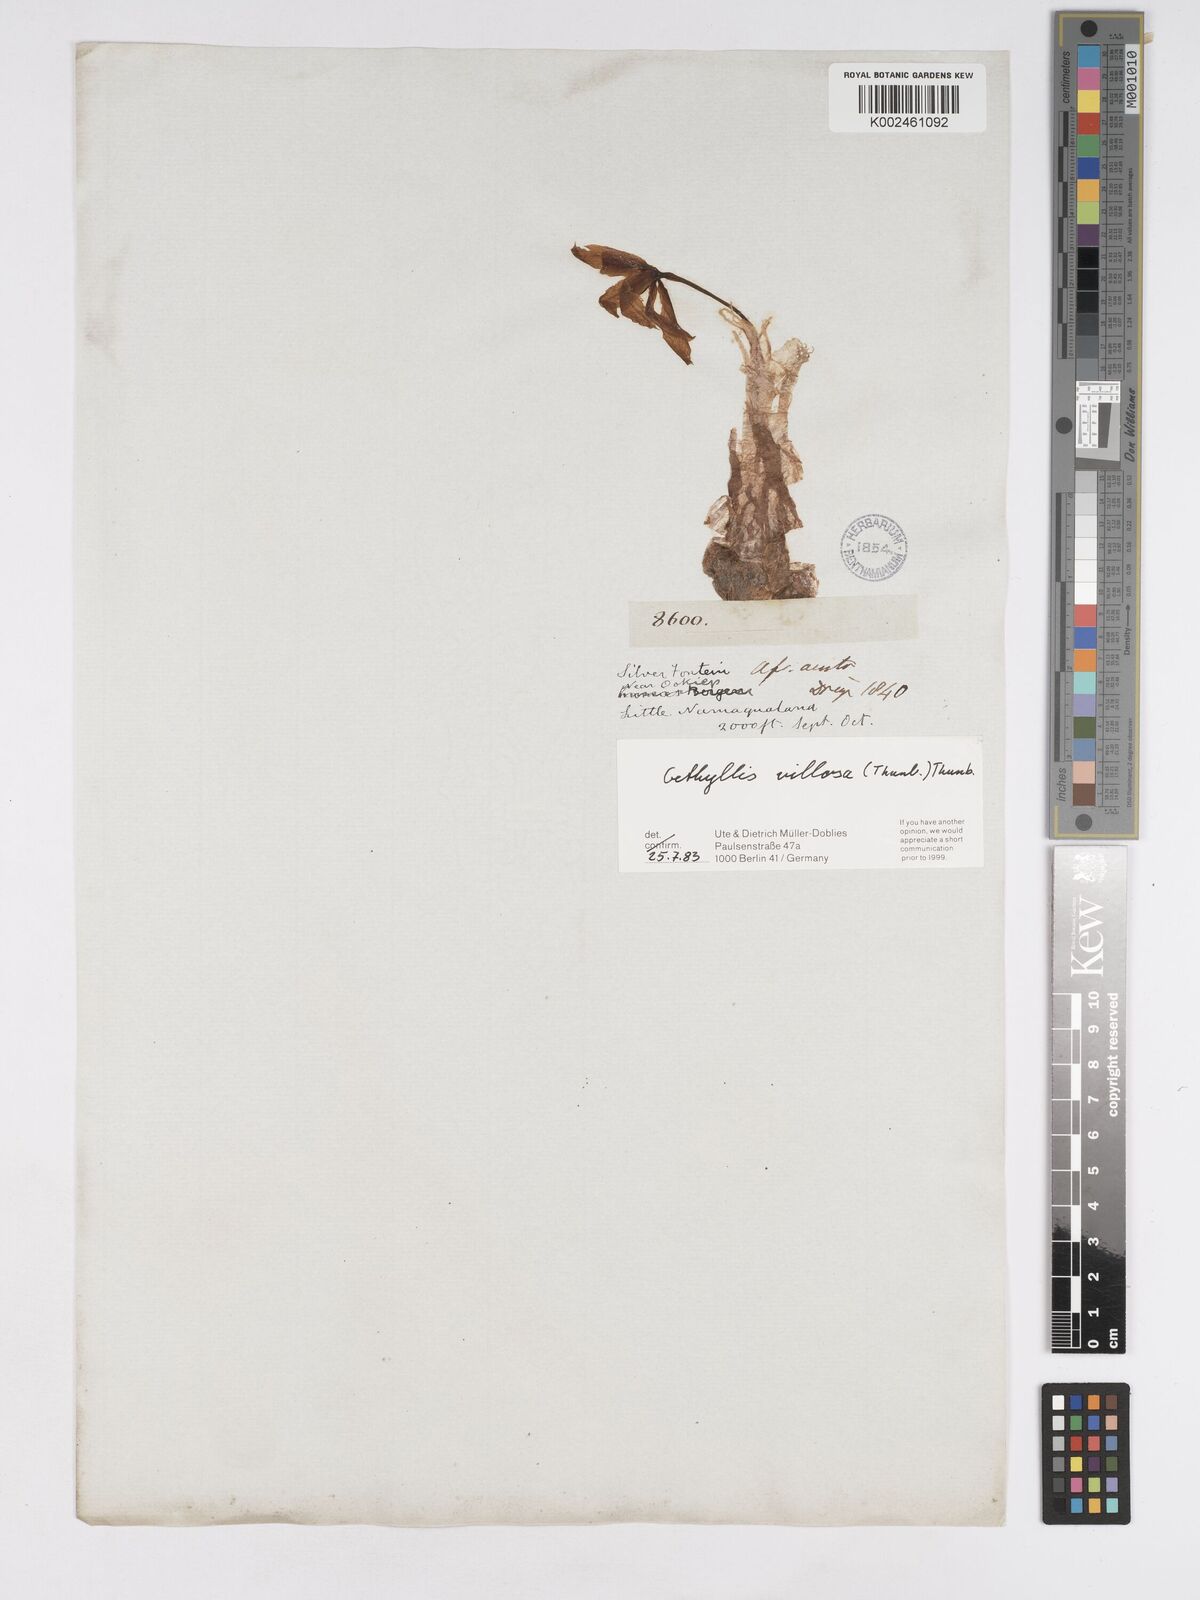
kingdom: Plantae
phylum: Tracheophyta
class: Liliopsida
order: Asparagales
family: Amaryllidaceae
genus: Gethyllis
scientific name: Gethyllis villosa
